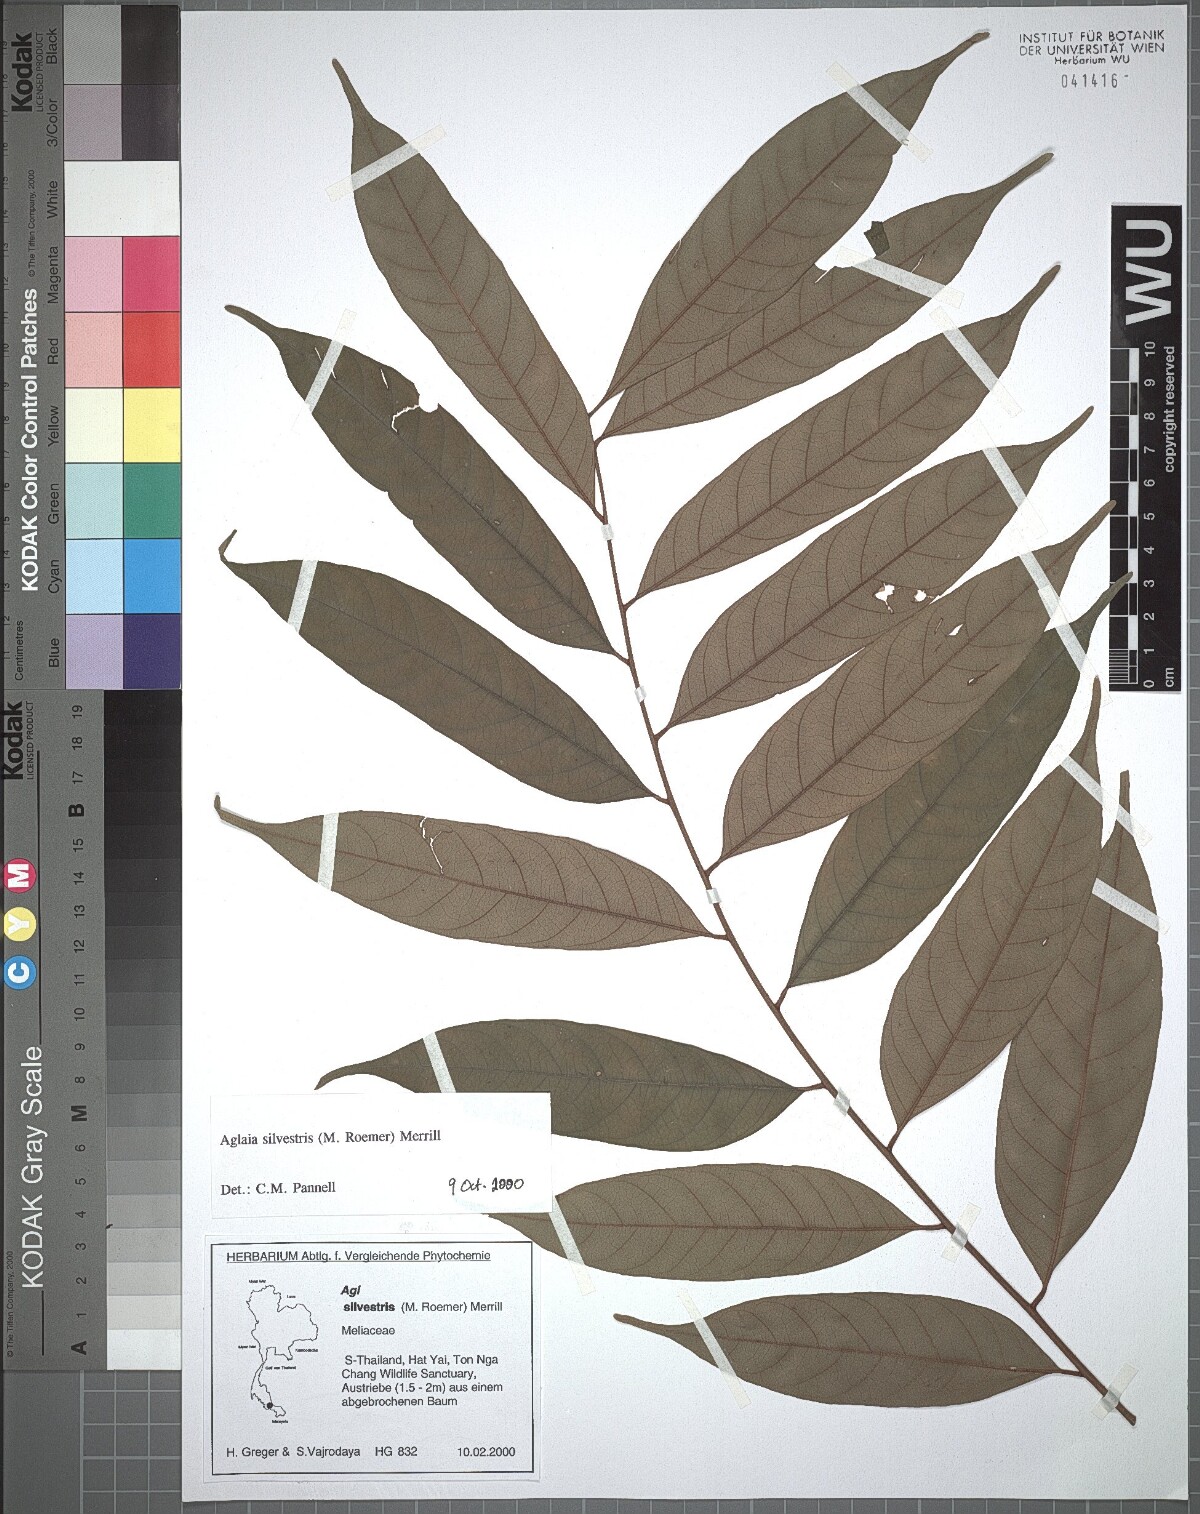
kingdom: Plantae
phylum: Tracheophyta
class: Magnoliopsida
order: Sapindales
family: Meliaceae
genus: Aglaia
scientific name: Aglaia silvestris
